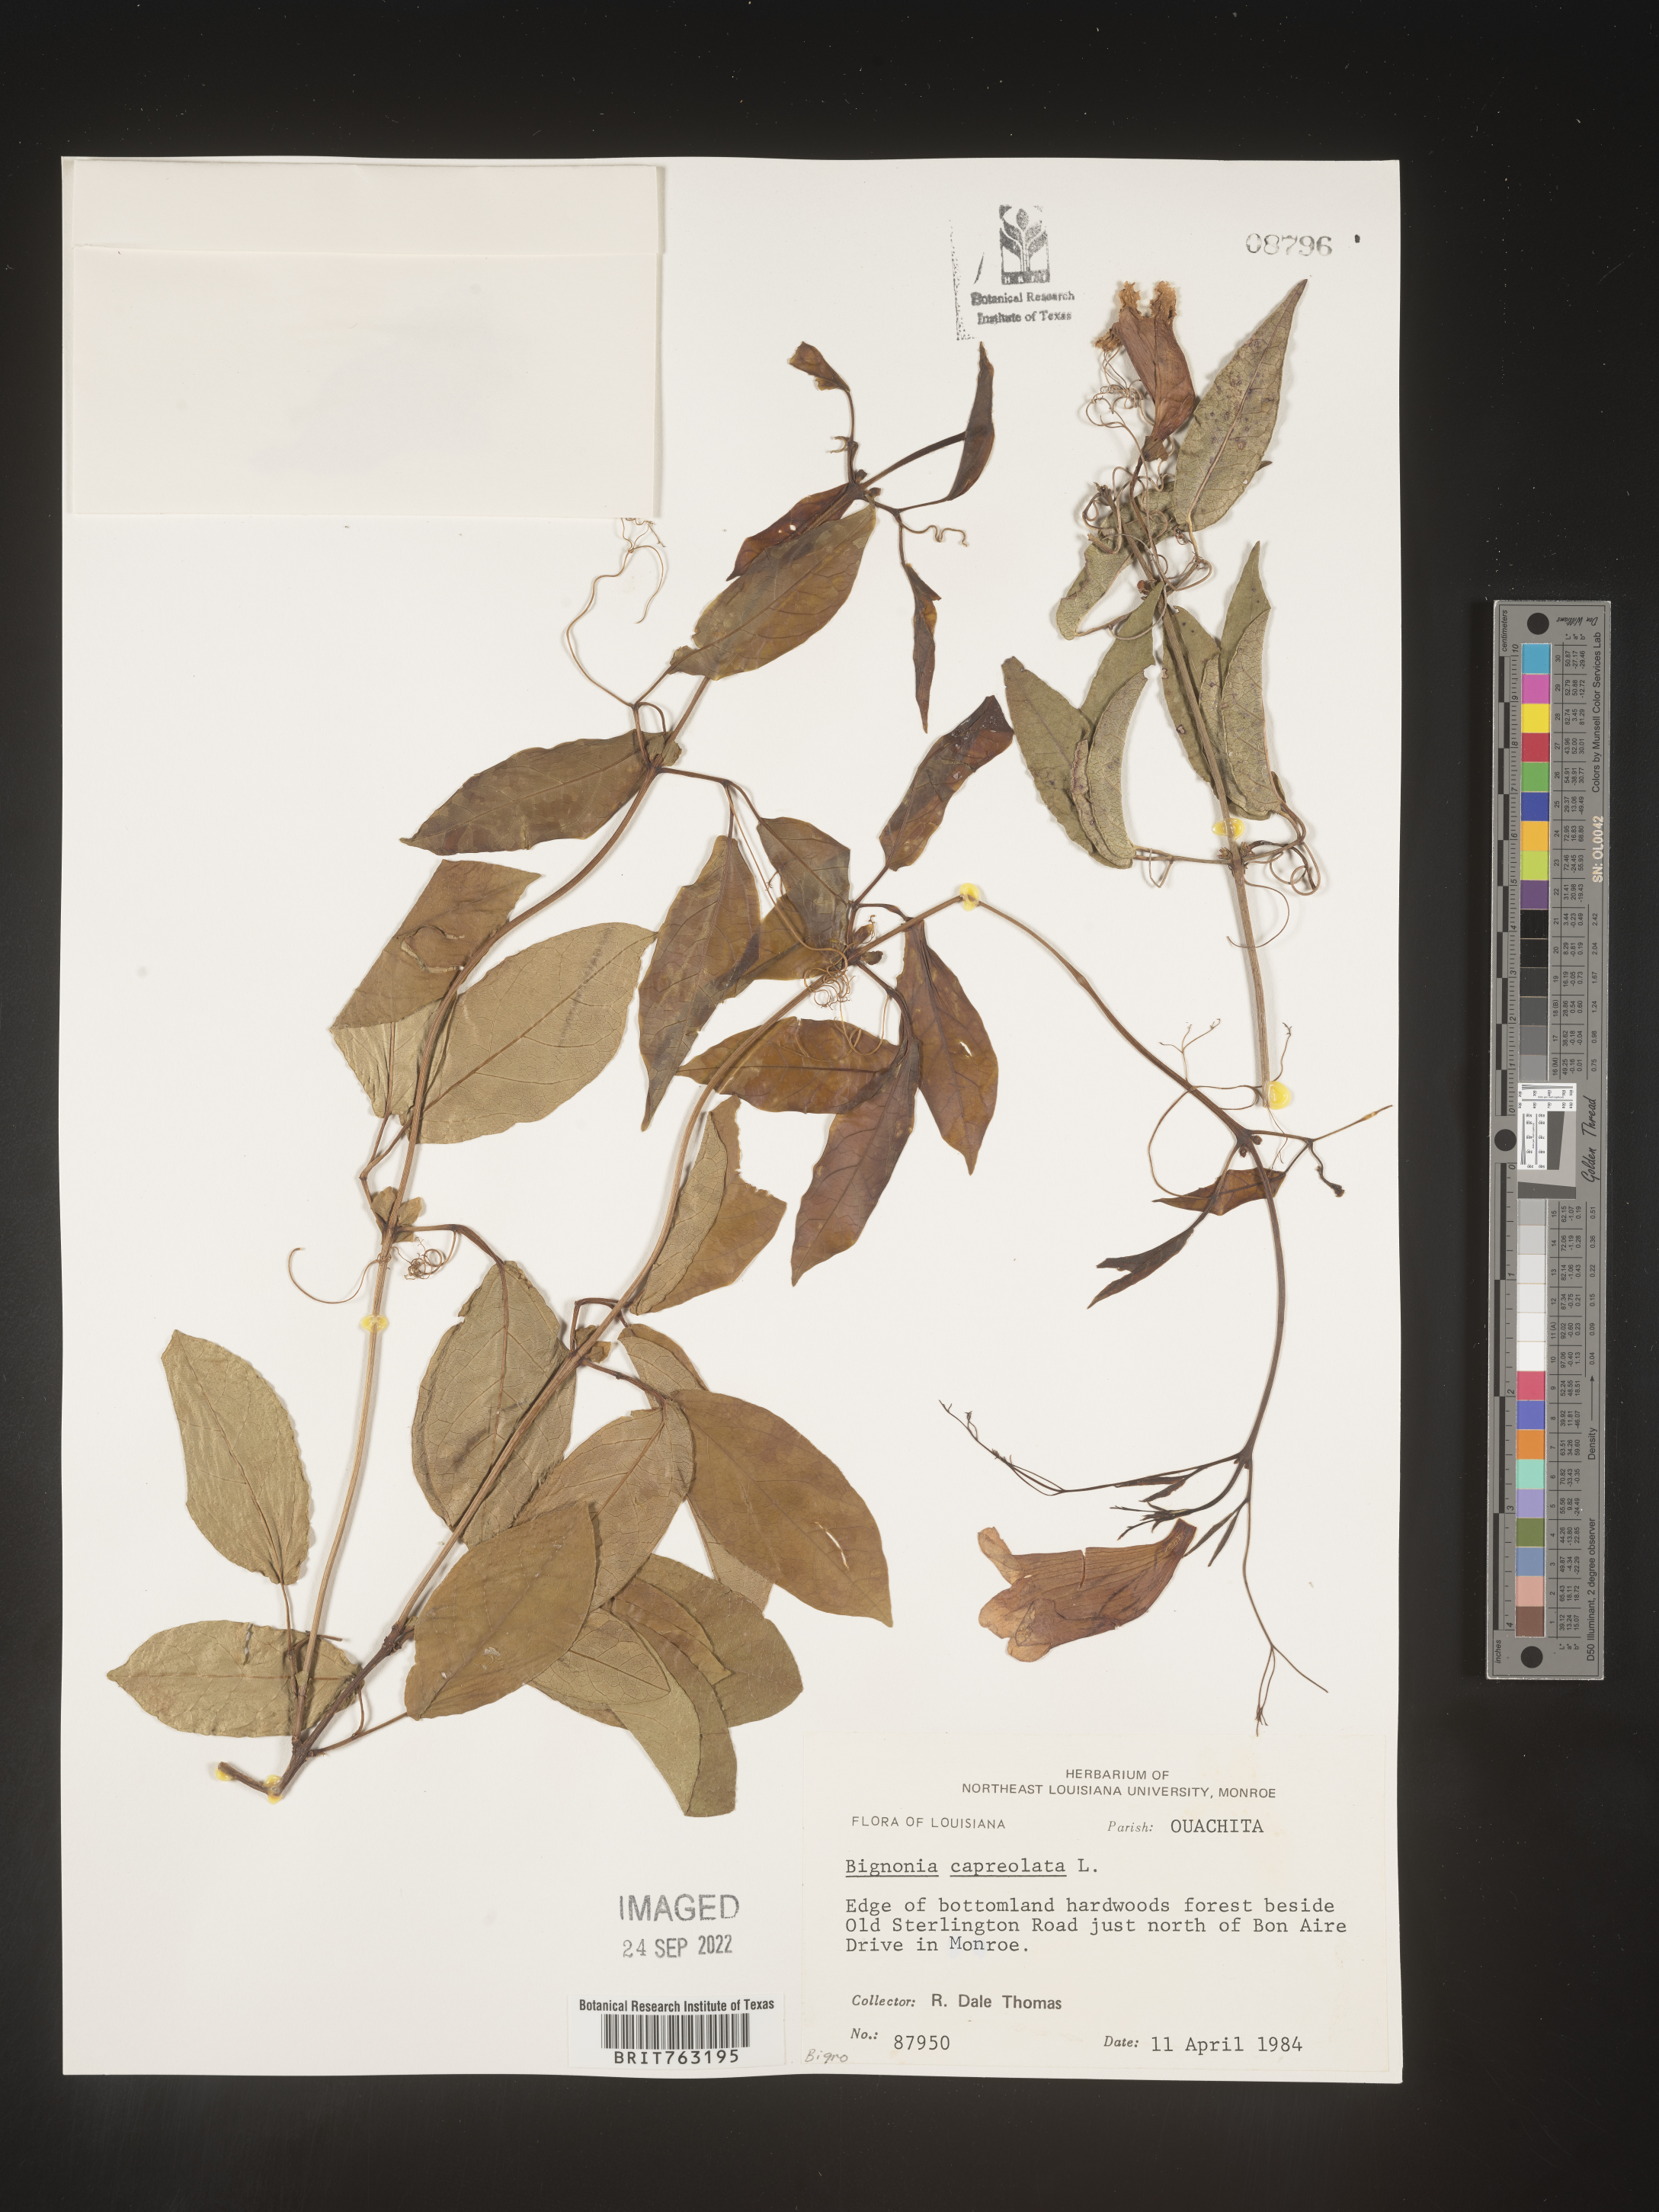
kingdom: Plantae
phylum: Tracheophyta
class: Magnoliopsida
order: Lamiales
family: Bignoniaceae
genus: Bignonia
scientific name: Bignonia capreolata
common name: Crossvine
